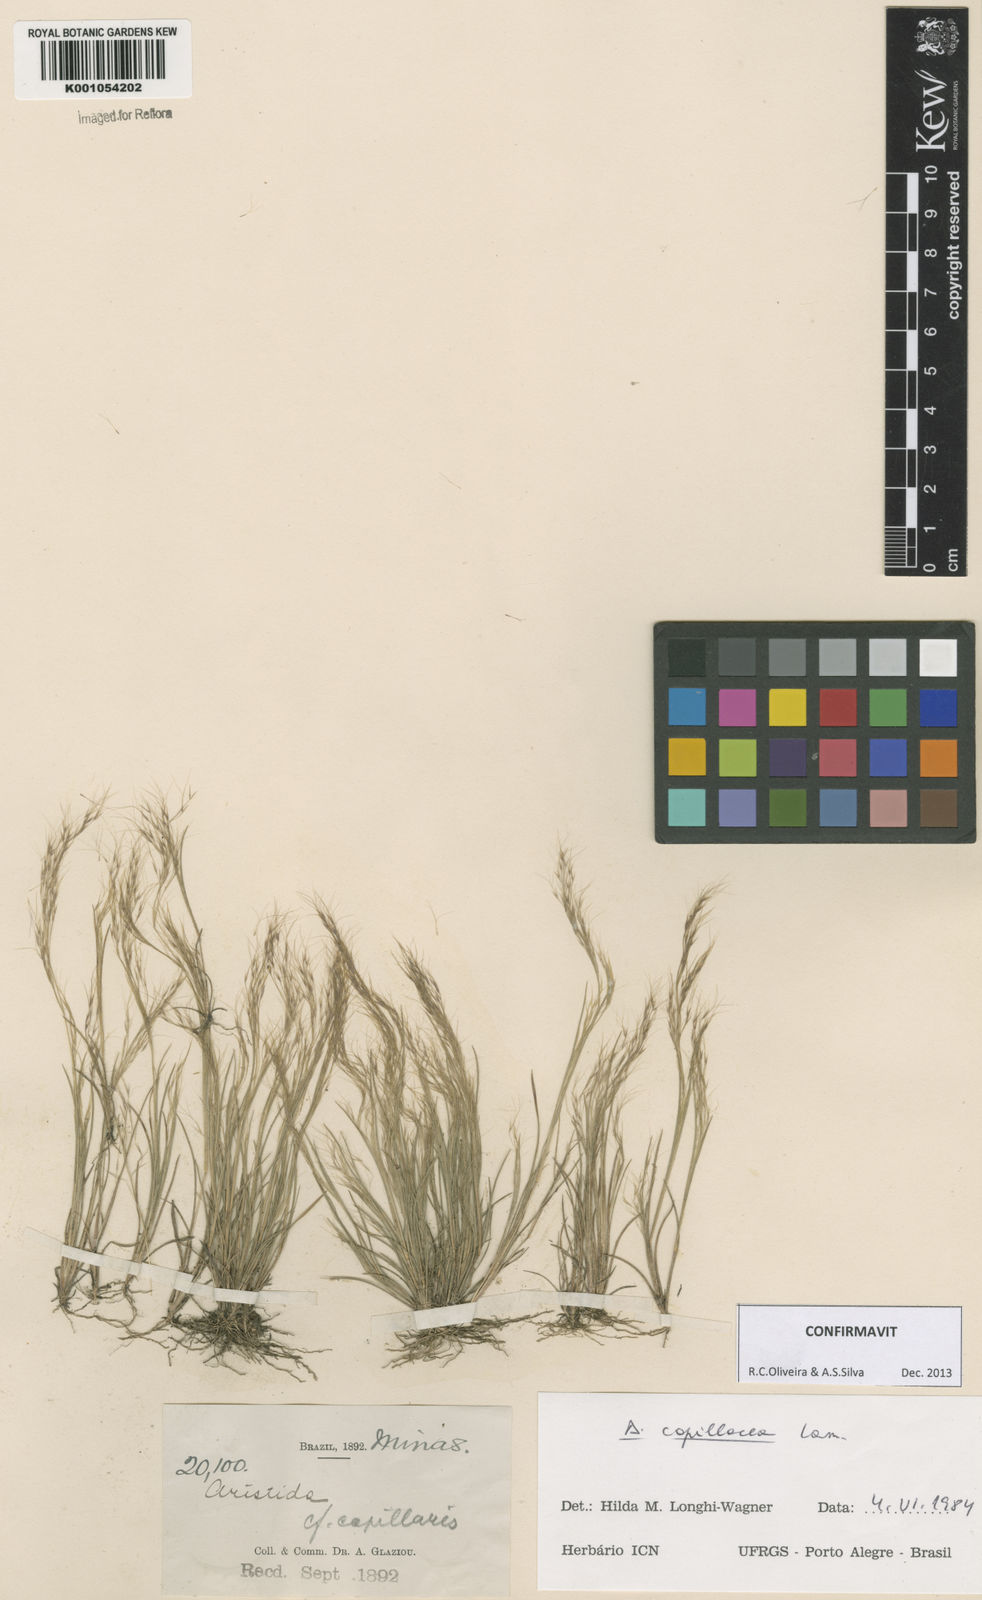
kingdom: Plantae
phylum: Tracheophyta
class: Liliopsida
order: Poales
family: Poaceae
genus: Aristida
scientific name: Aristida capillacea
